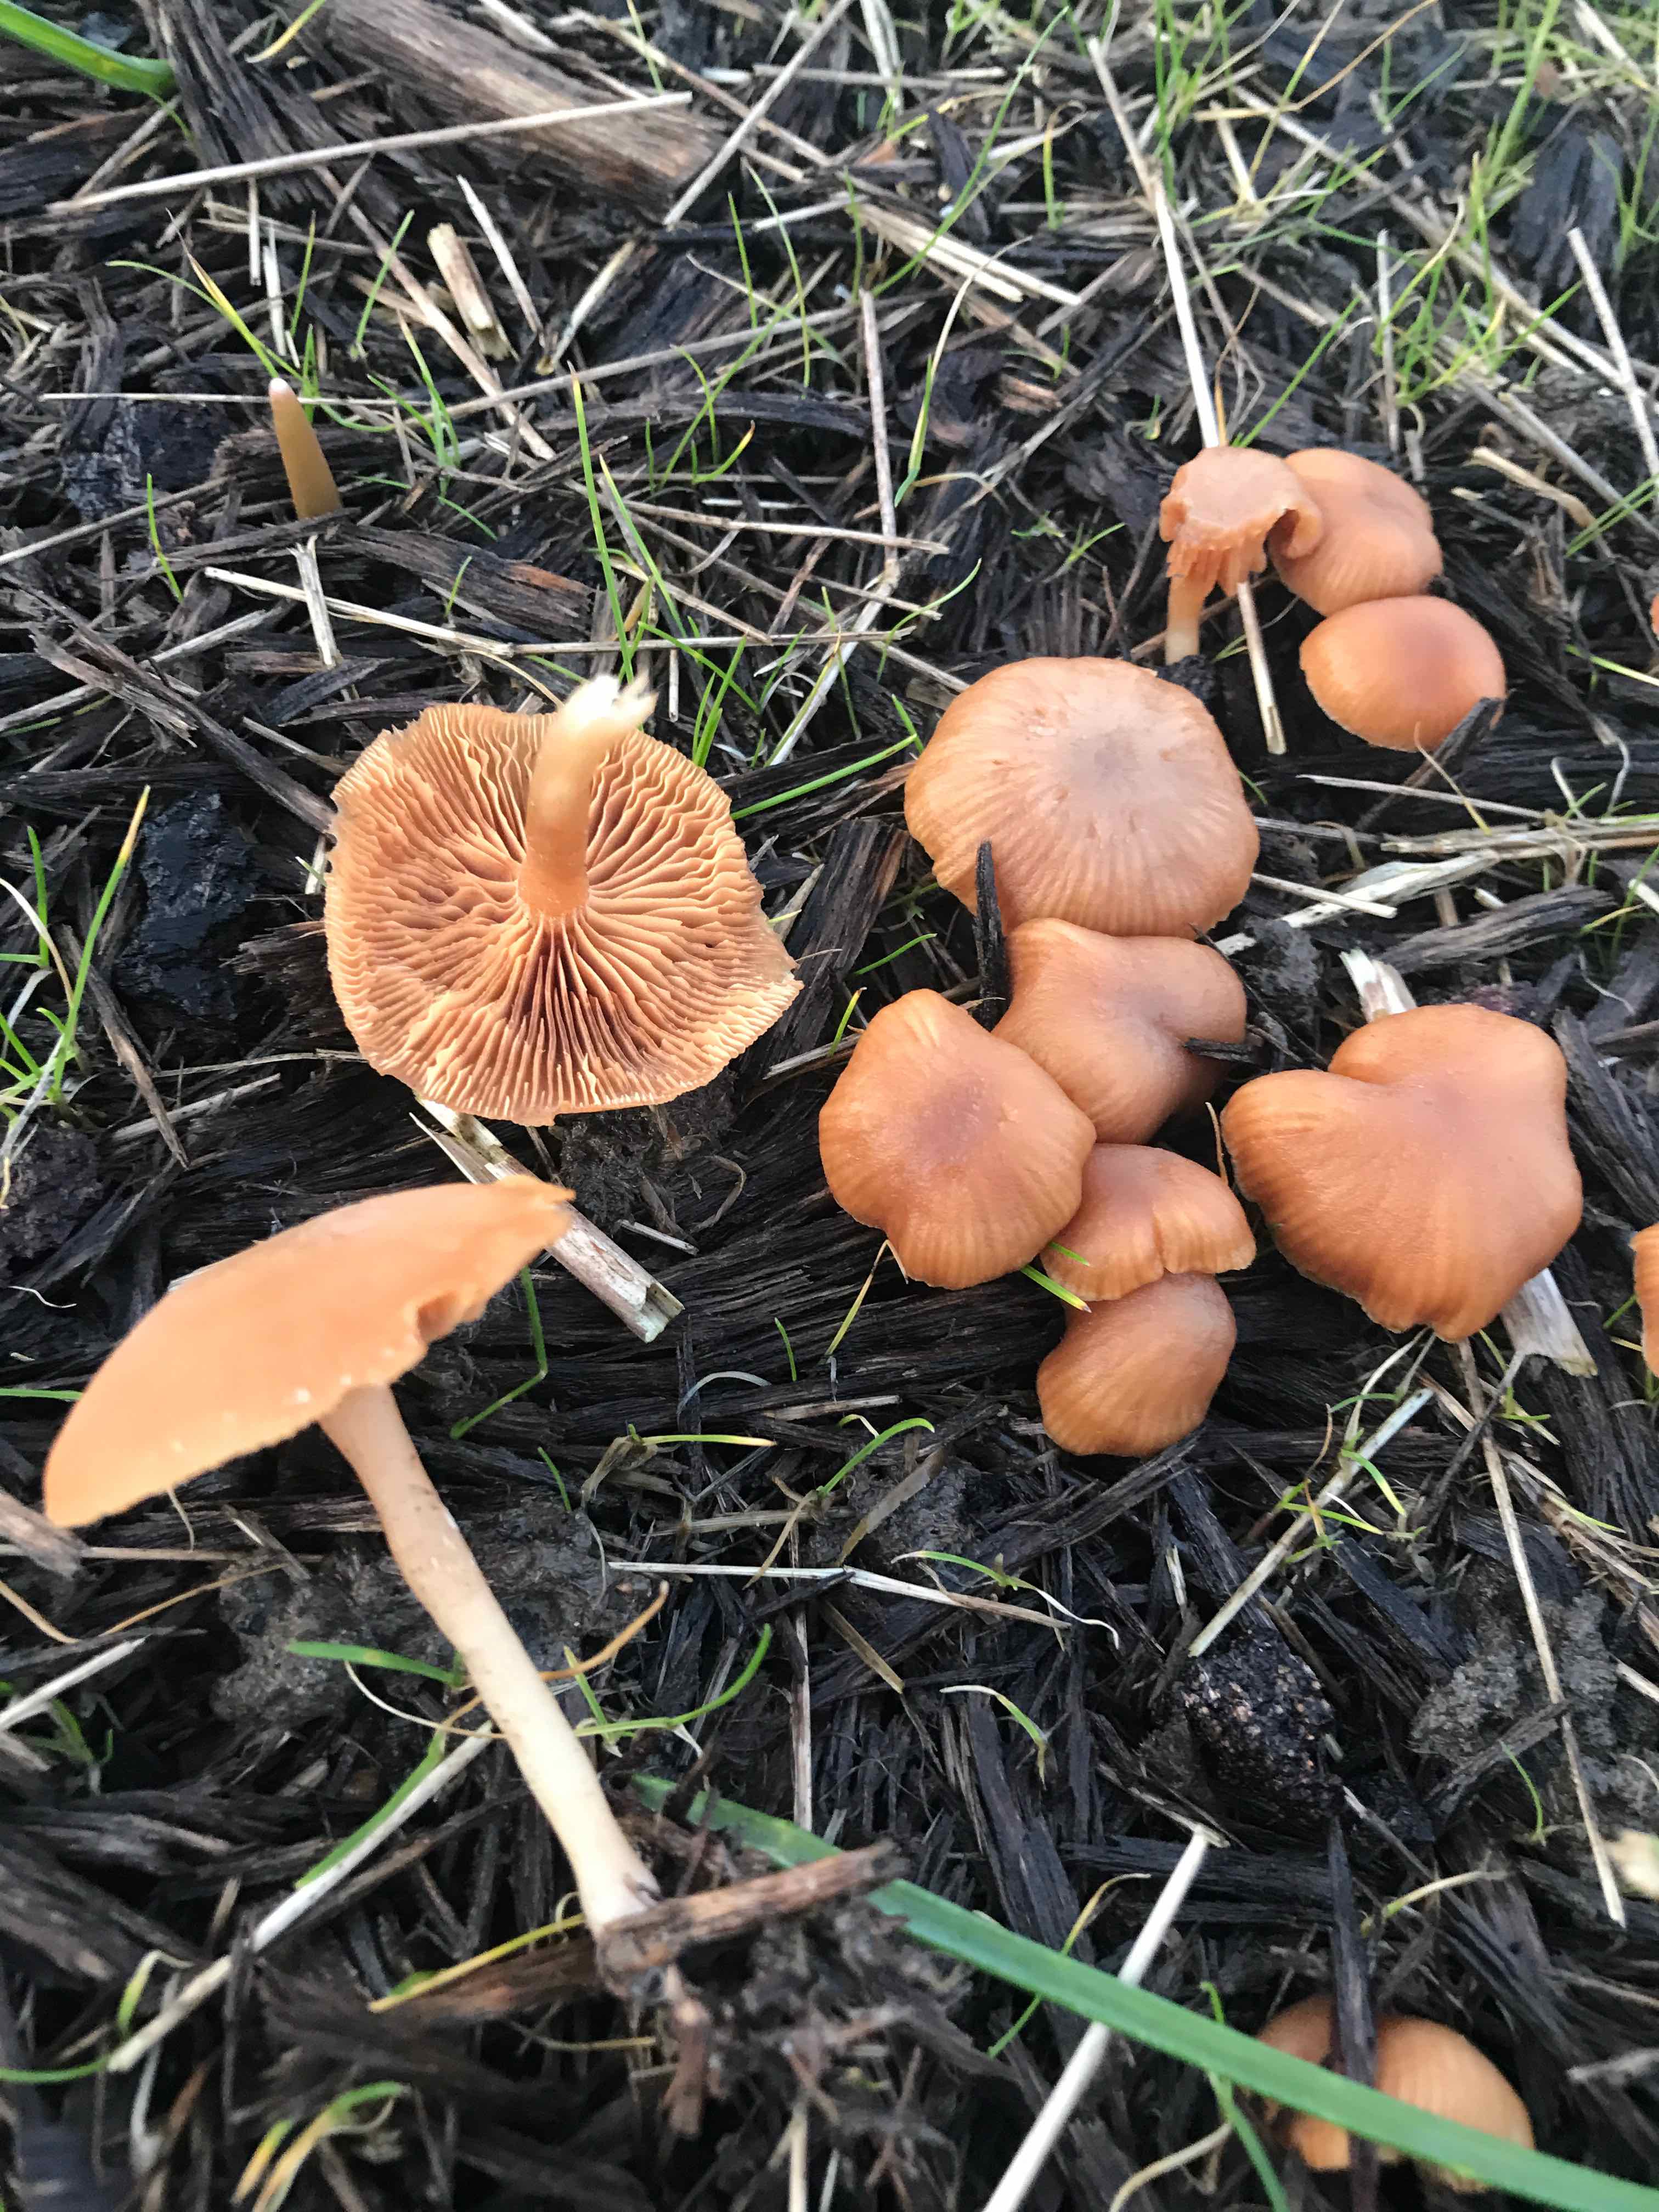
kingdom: Fungi
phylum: Basidiomycota
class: Agaricomycetes
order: Agaricales
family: Tubariaceae
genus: Tubaria
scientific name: Tubaria furfuracea
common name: kliddet fnughat
